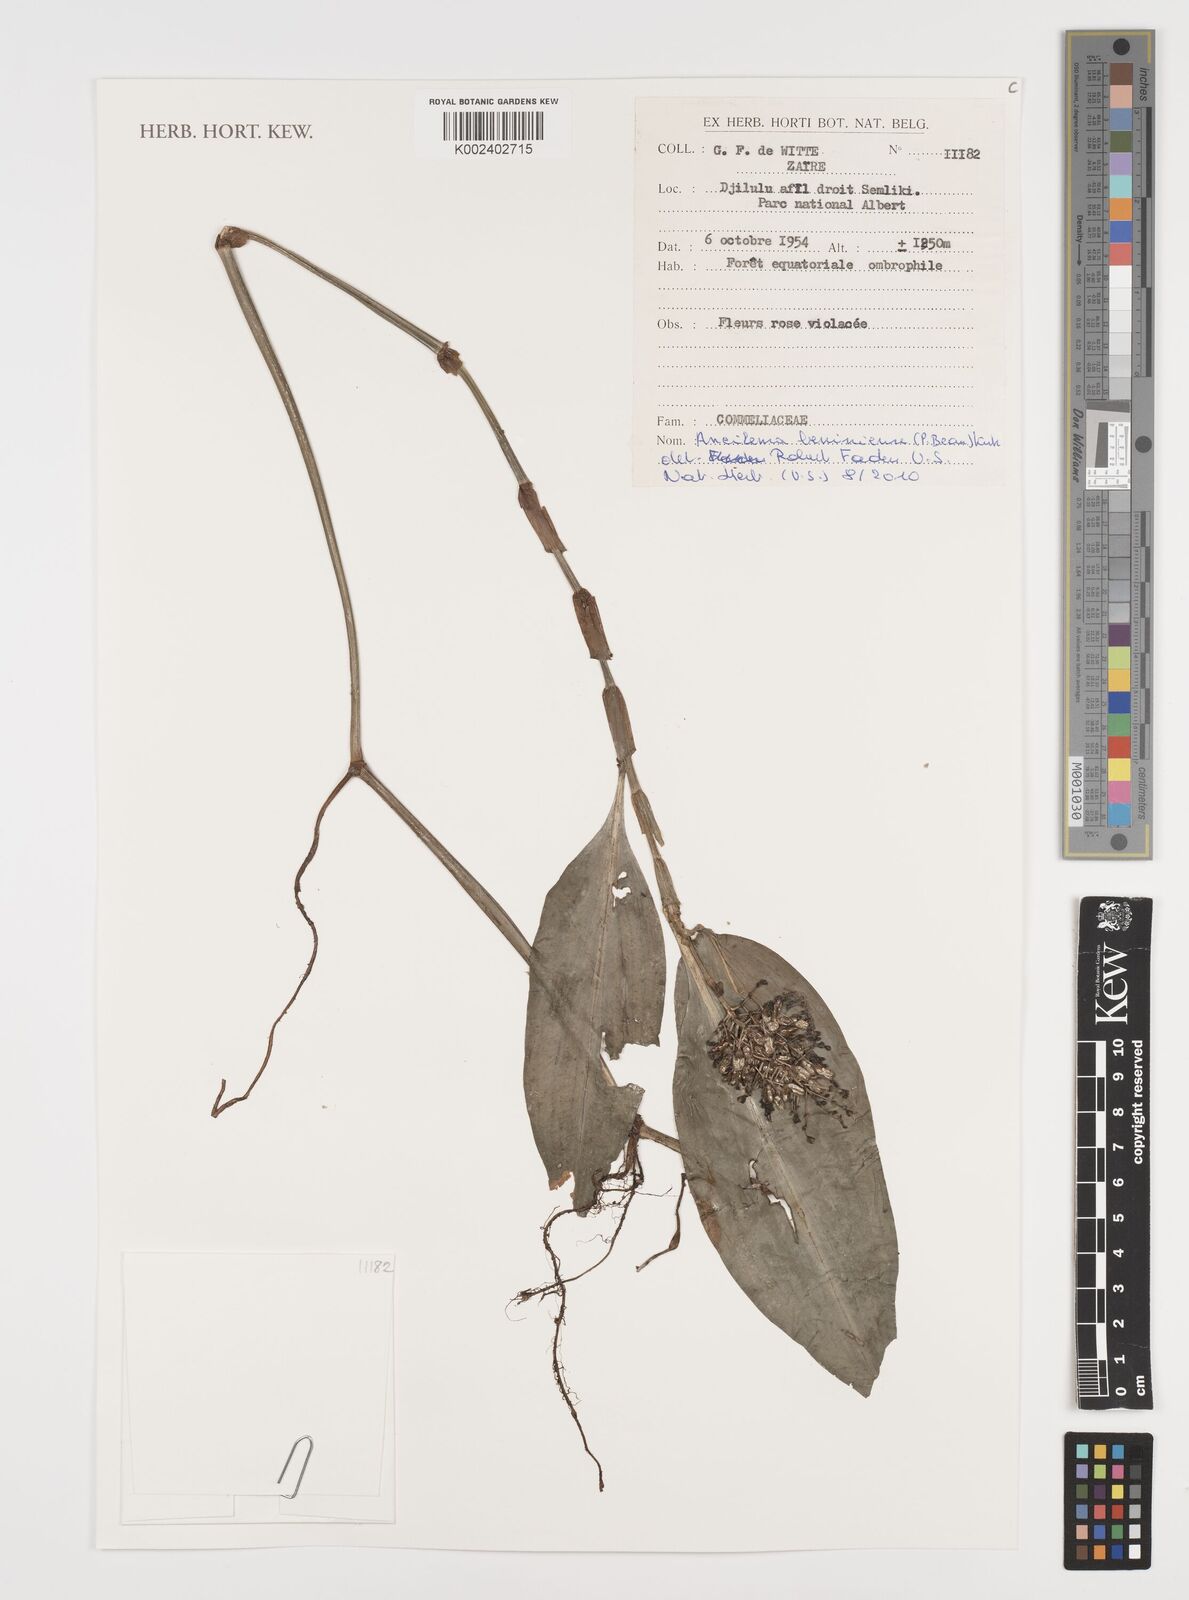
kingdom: Plantae
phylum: Tracheophyta
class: Liliopsida
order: Commelinales
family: Commelinaceae
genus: Aneilema
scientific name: Aneilema beniniense
